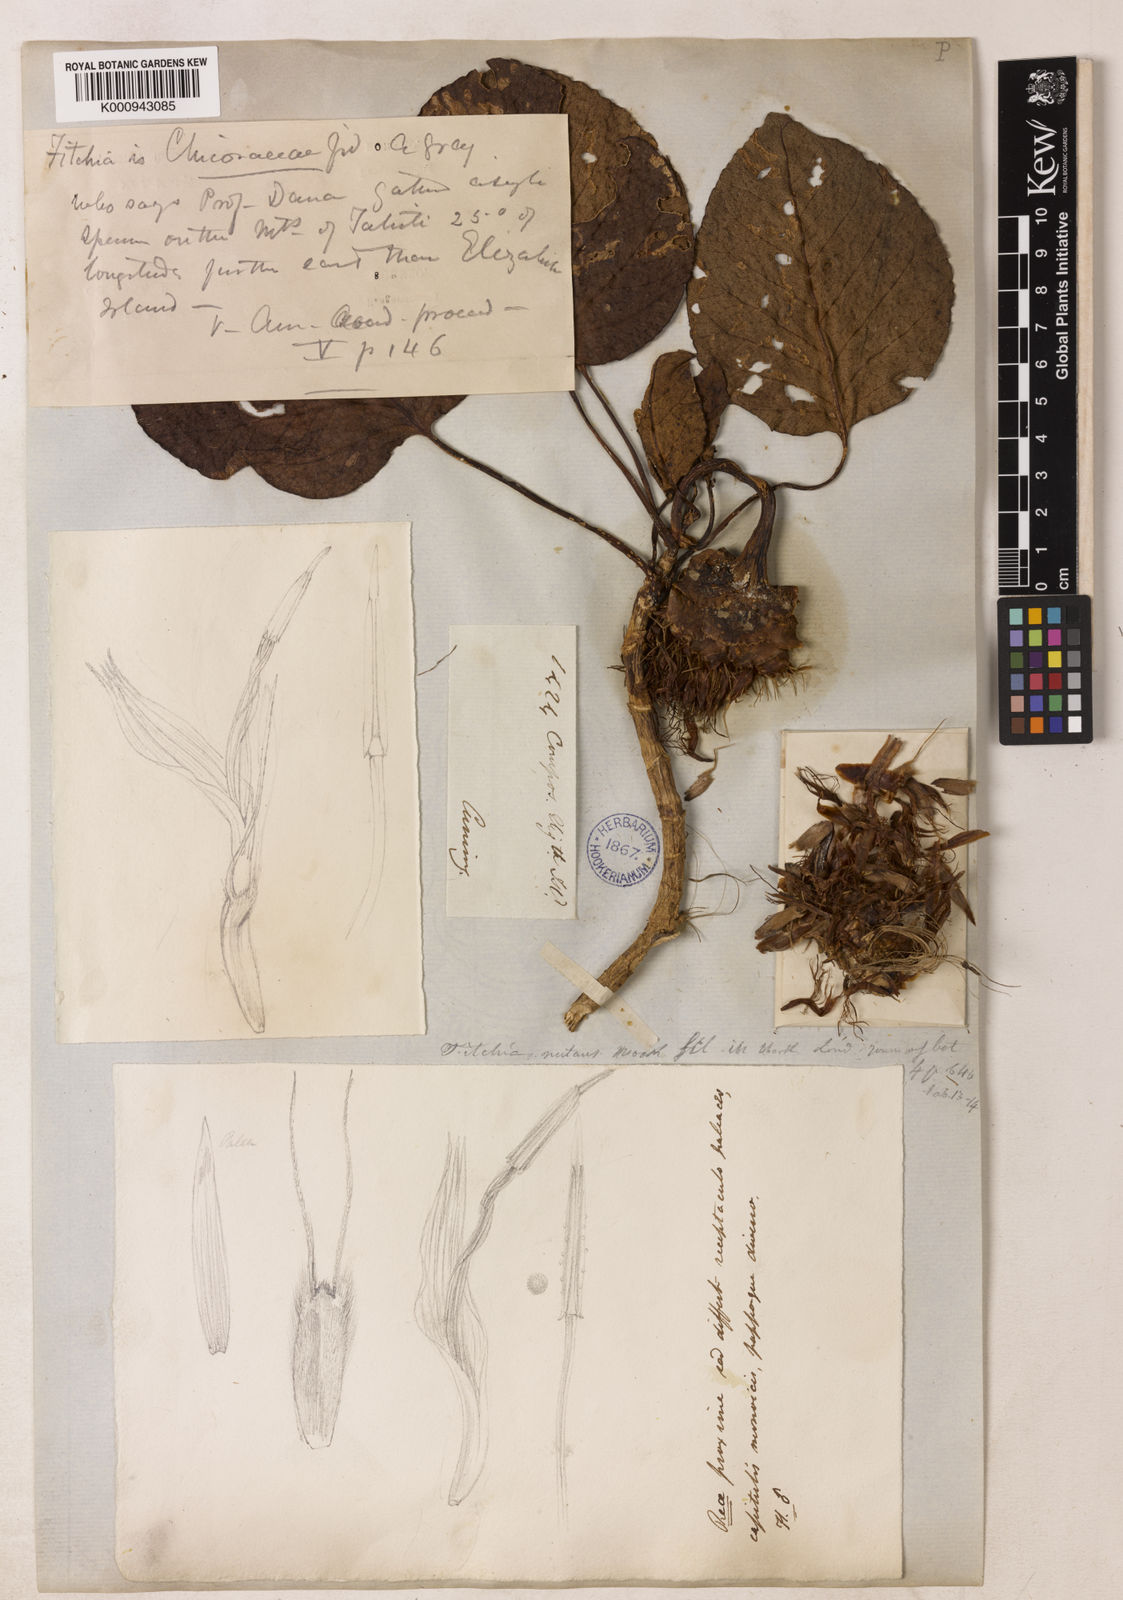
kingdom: Plantae
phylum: Tracheophyta
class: Magnoliopsida
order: Asterales
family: Asteraceae
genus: Fitchia
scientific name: Fitchia nutans
